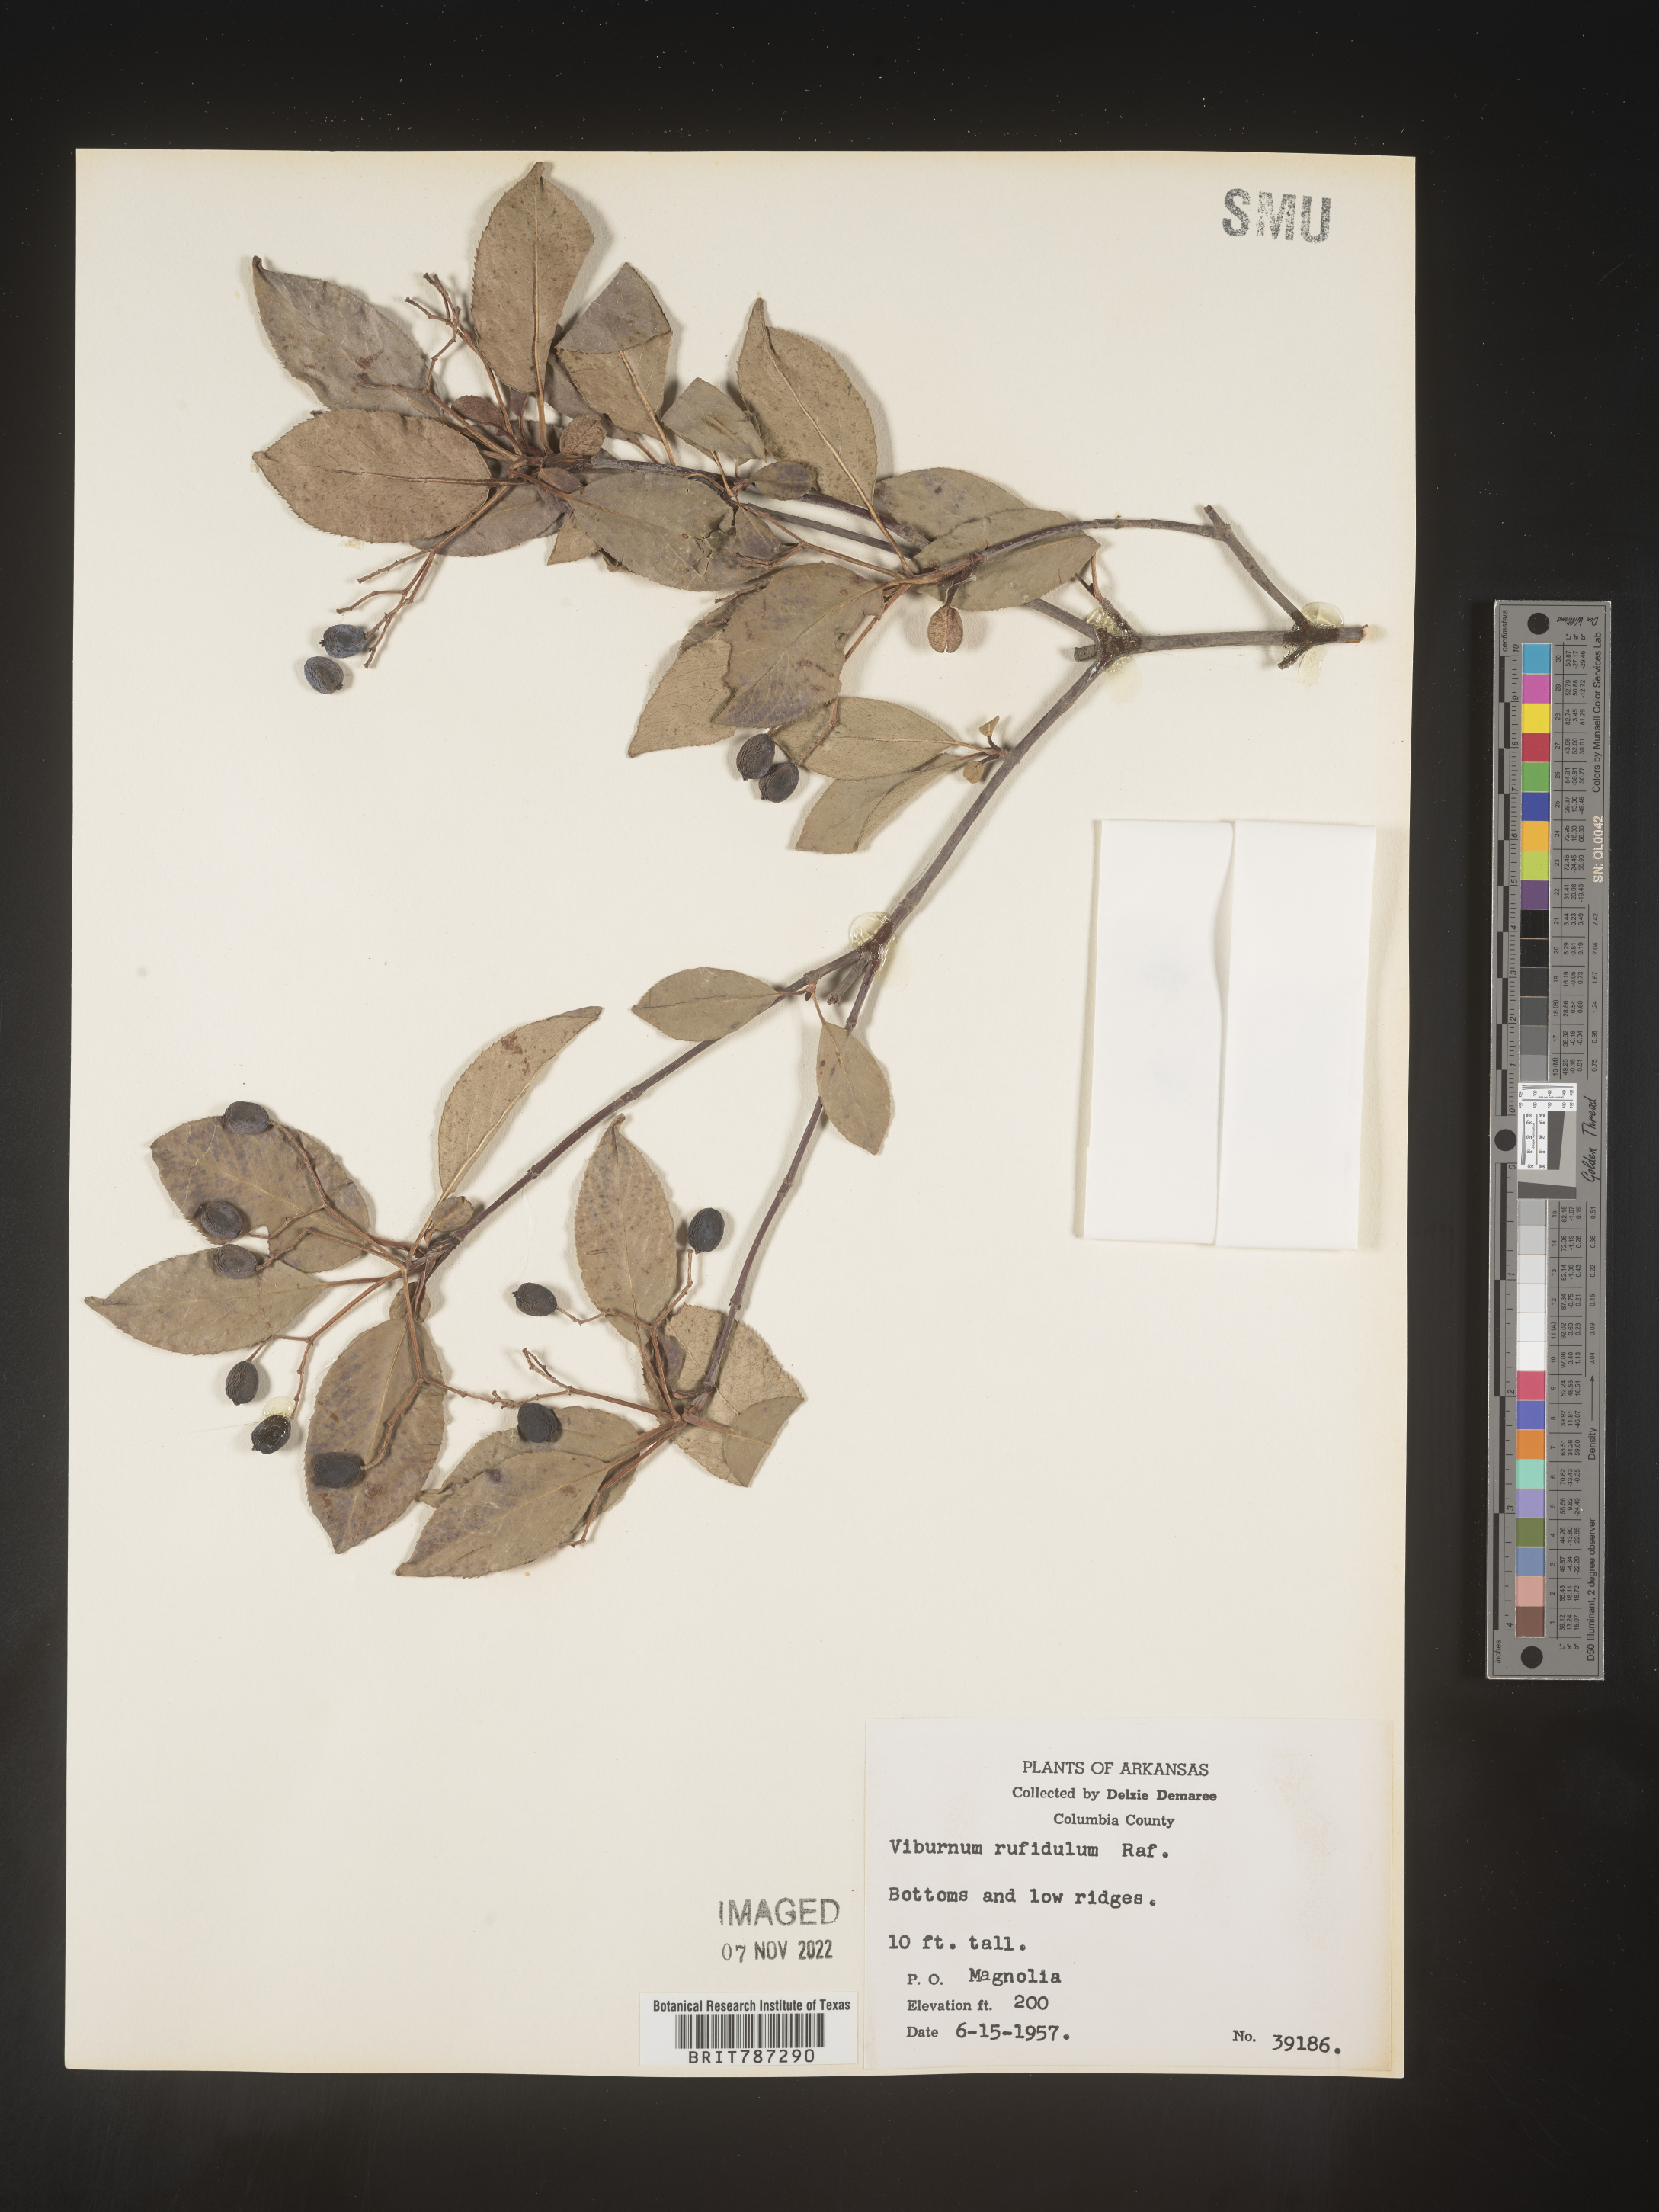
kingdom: Plantae
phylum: Tracheophyta
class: Magnoliopsida
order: Dipsacales
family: Viburnaceae
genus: Viburnum
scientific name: Viburnum rufidulum
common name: Blue haw
